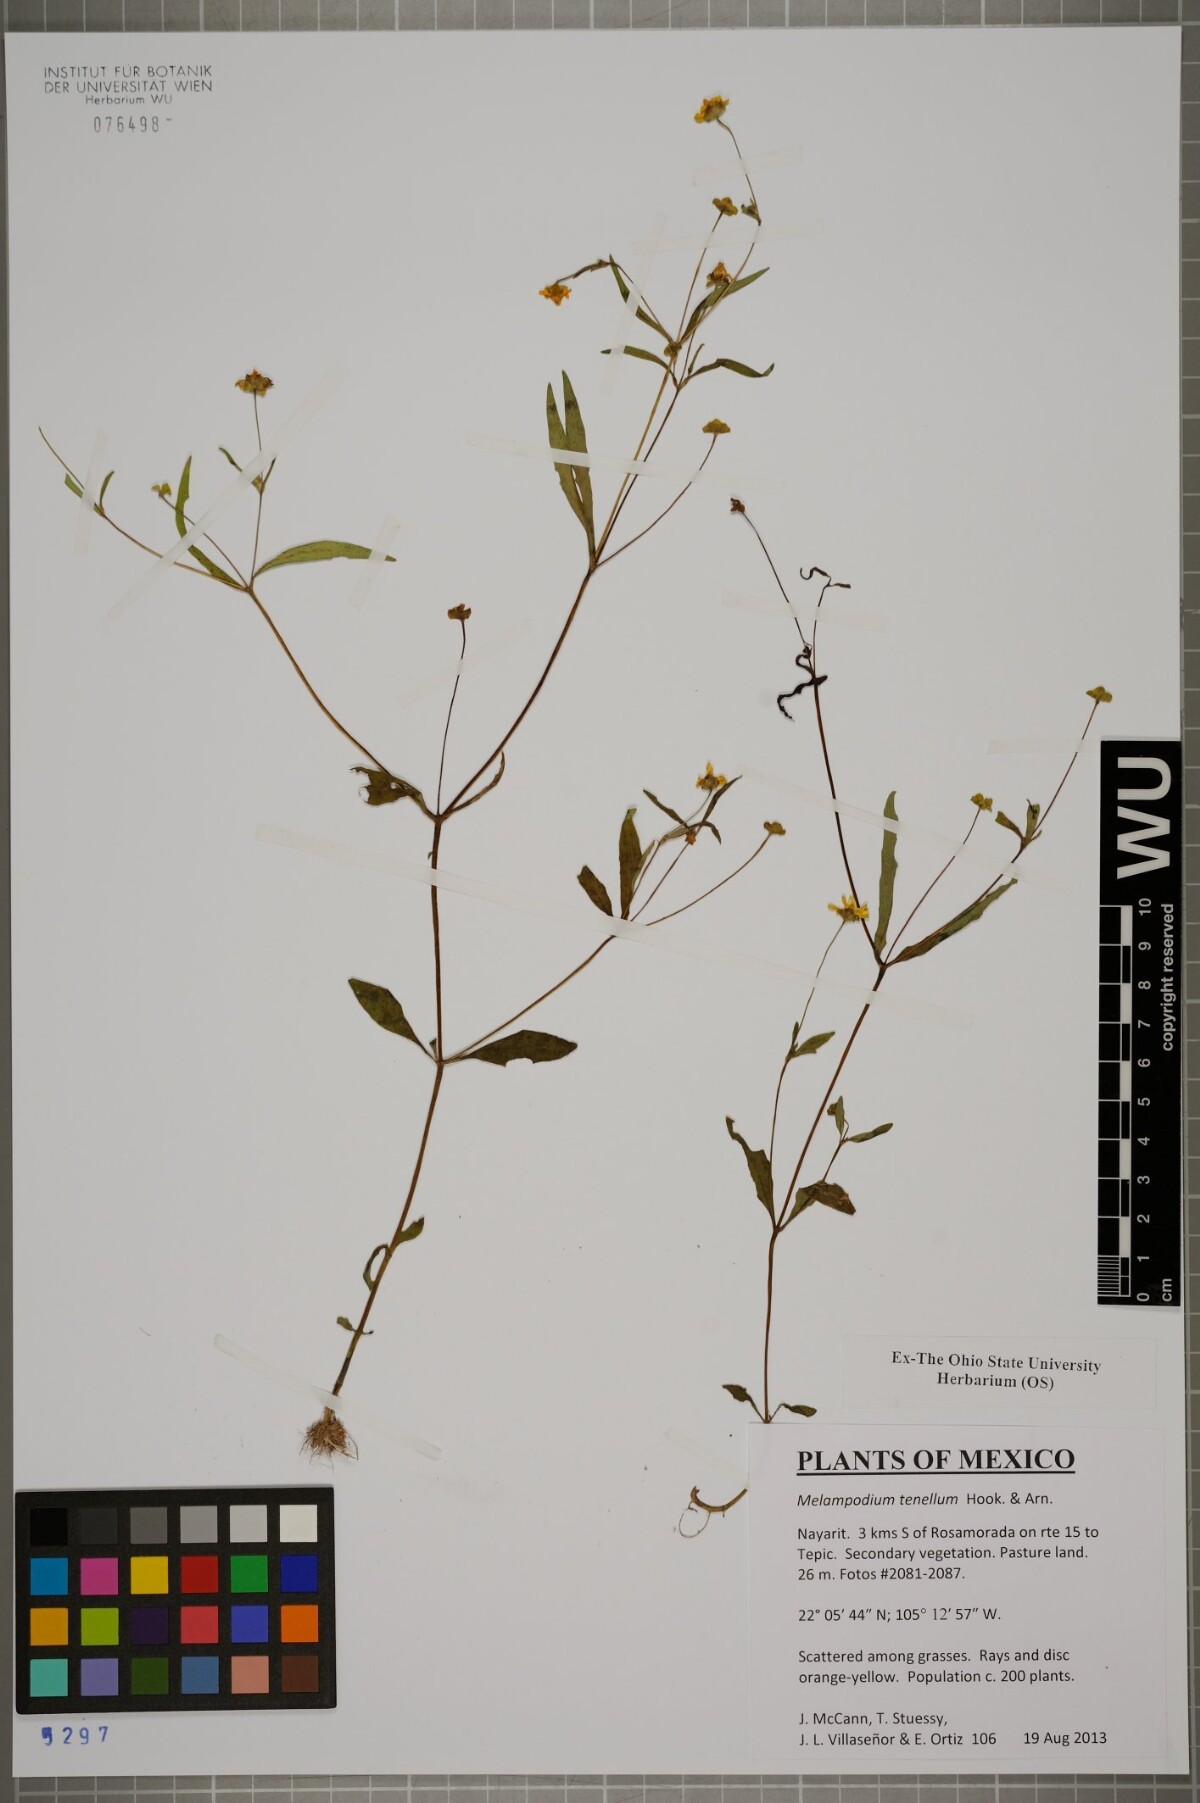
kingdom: Plantae
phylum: Tracheophyta
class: Magnoliopsida
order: Asterales
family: Asteraceae
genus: Melampodium
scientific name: Melampodium tenellum
